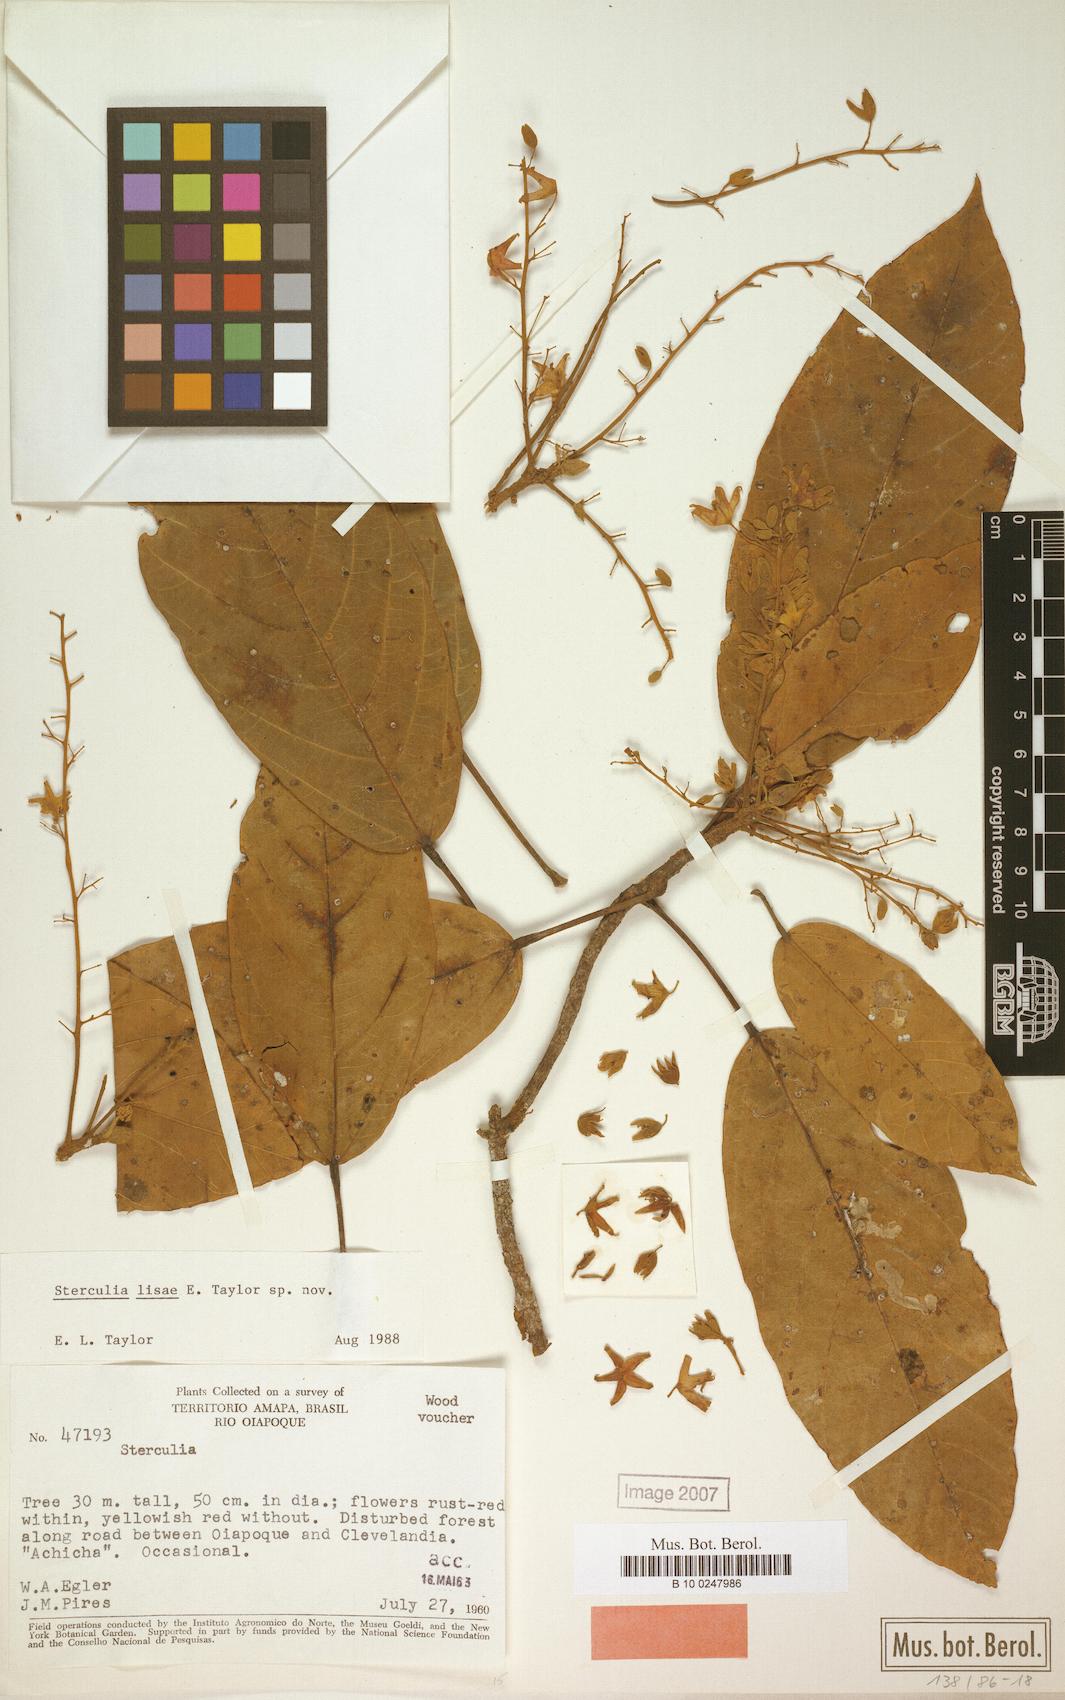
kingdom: Plantae
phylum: Tracheophyta
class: Magnoliopsida
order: Malvales
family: Malvaceae
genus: Sterculia
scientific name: Sterculia lisae
